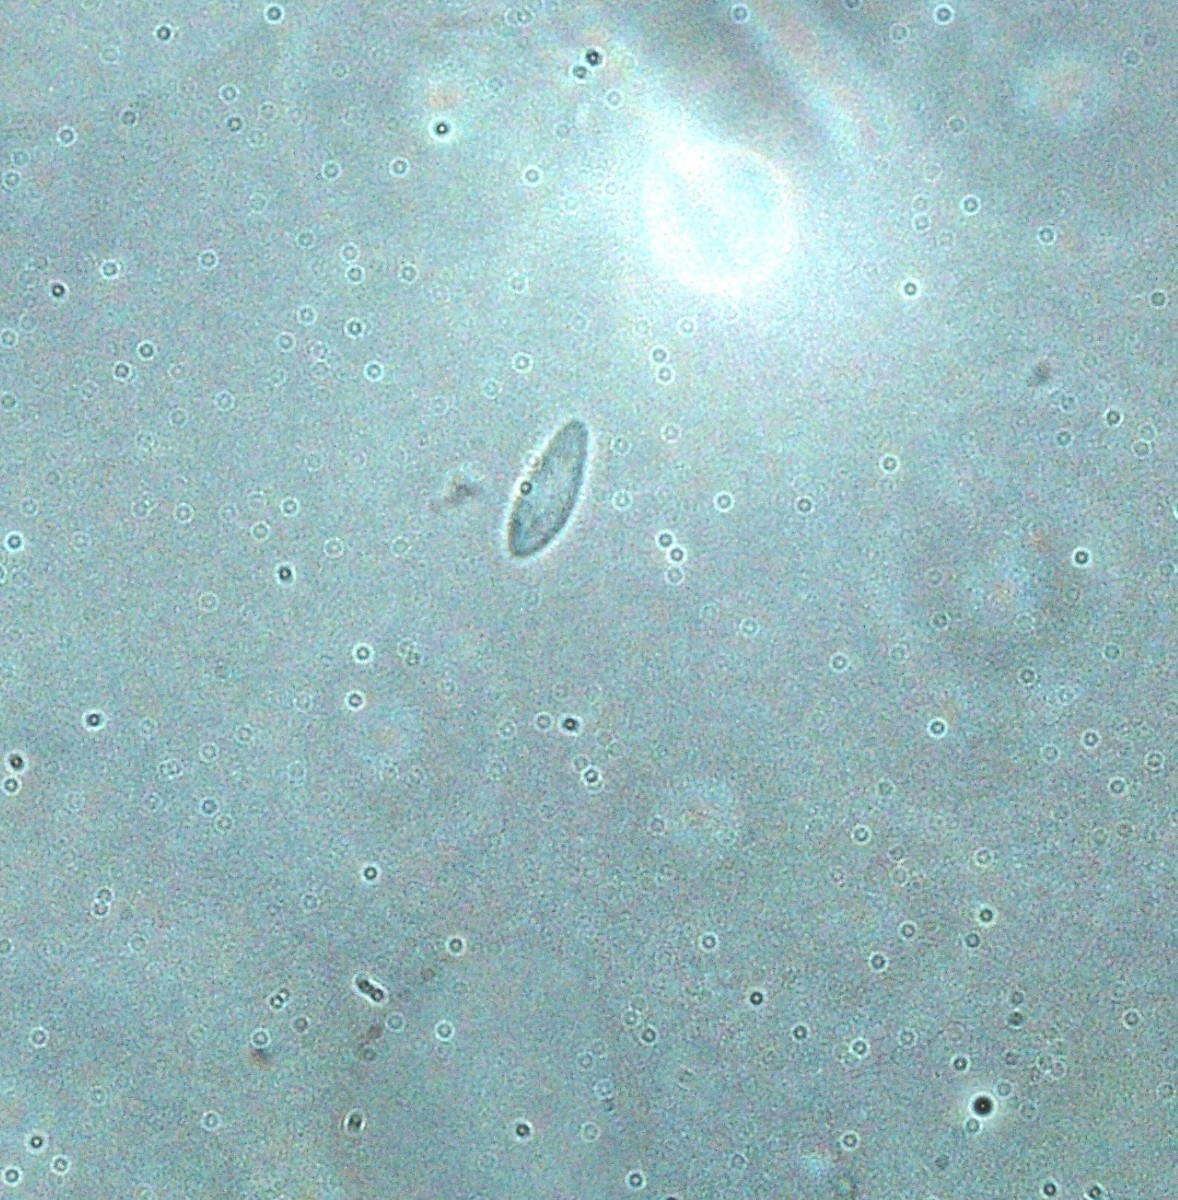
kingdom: Fungi
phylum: Ascomycota
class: Leotiomycetes
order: Helotiales
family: Helotiaceae
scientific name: Helotiaceae
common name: stilkskivefamilien
